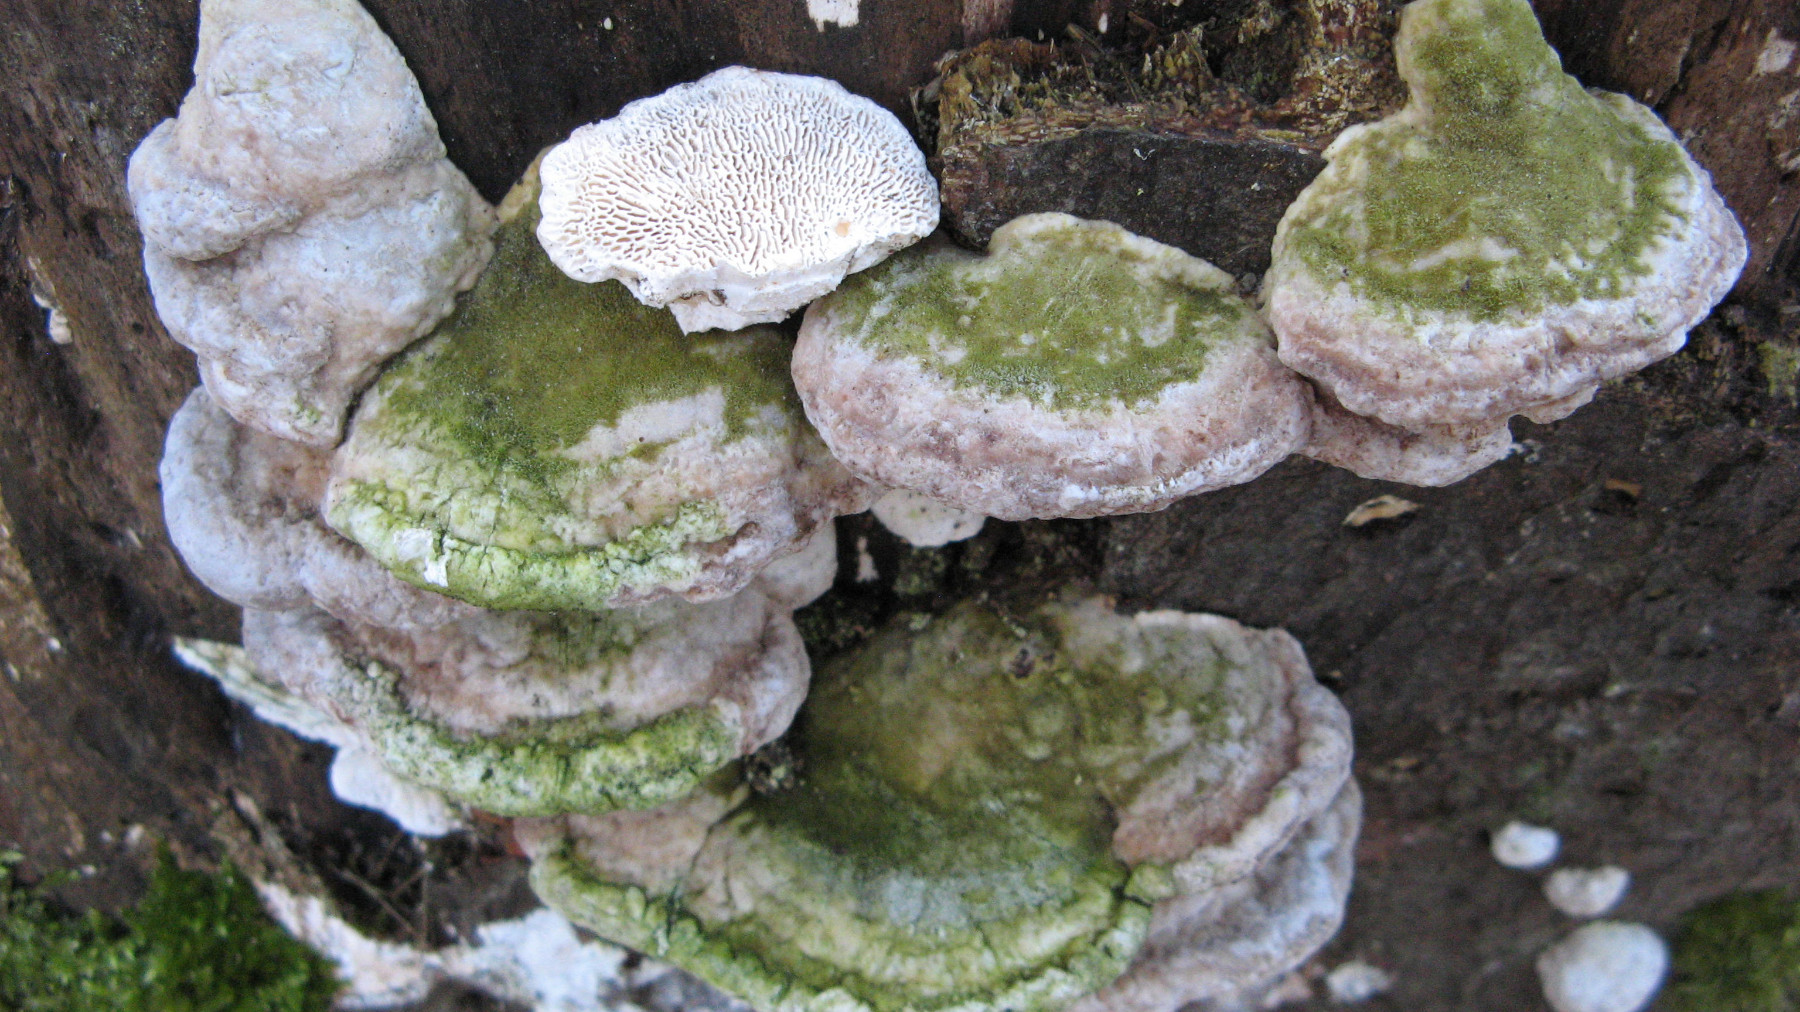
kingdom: Fungi
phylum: Basidiomycota
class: Agaricomycetes
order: Polyporales
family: Polyporaceae
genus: Trametes
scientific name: Trametes gibbosa
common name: puklet læderporesvamp
